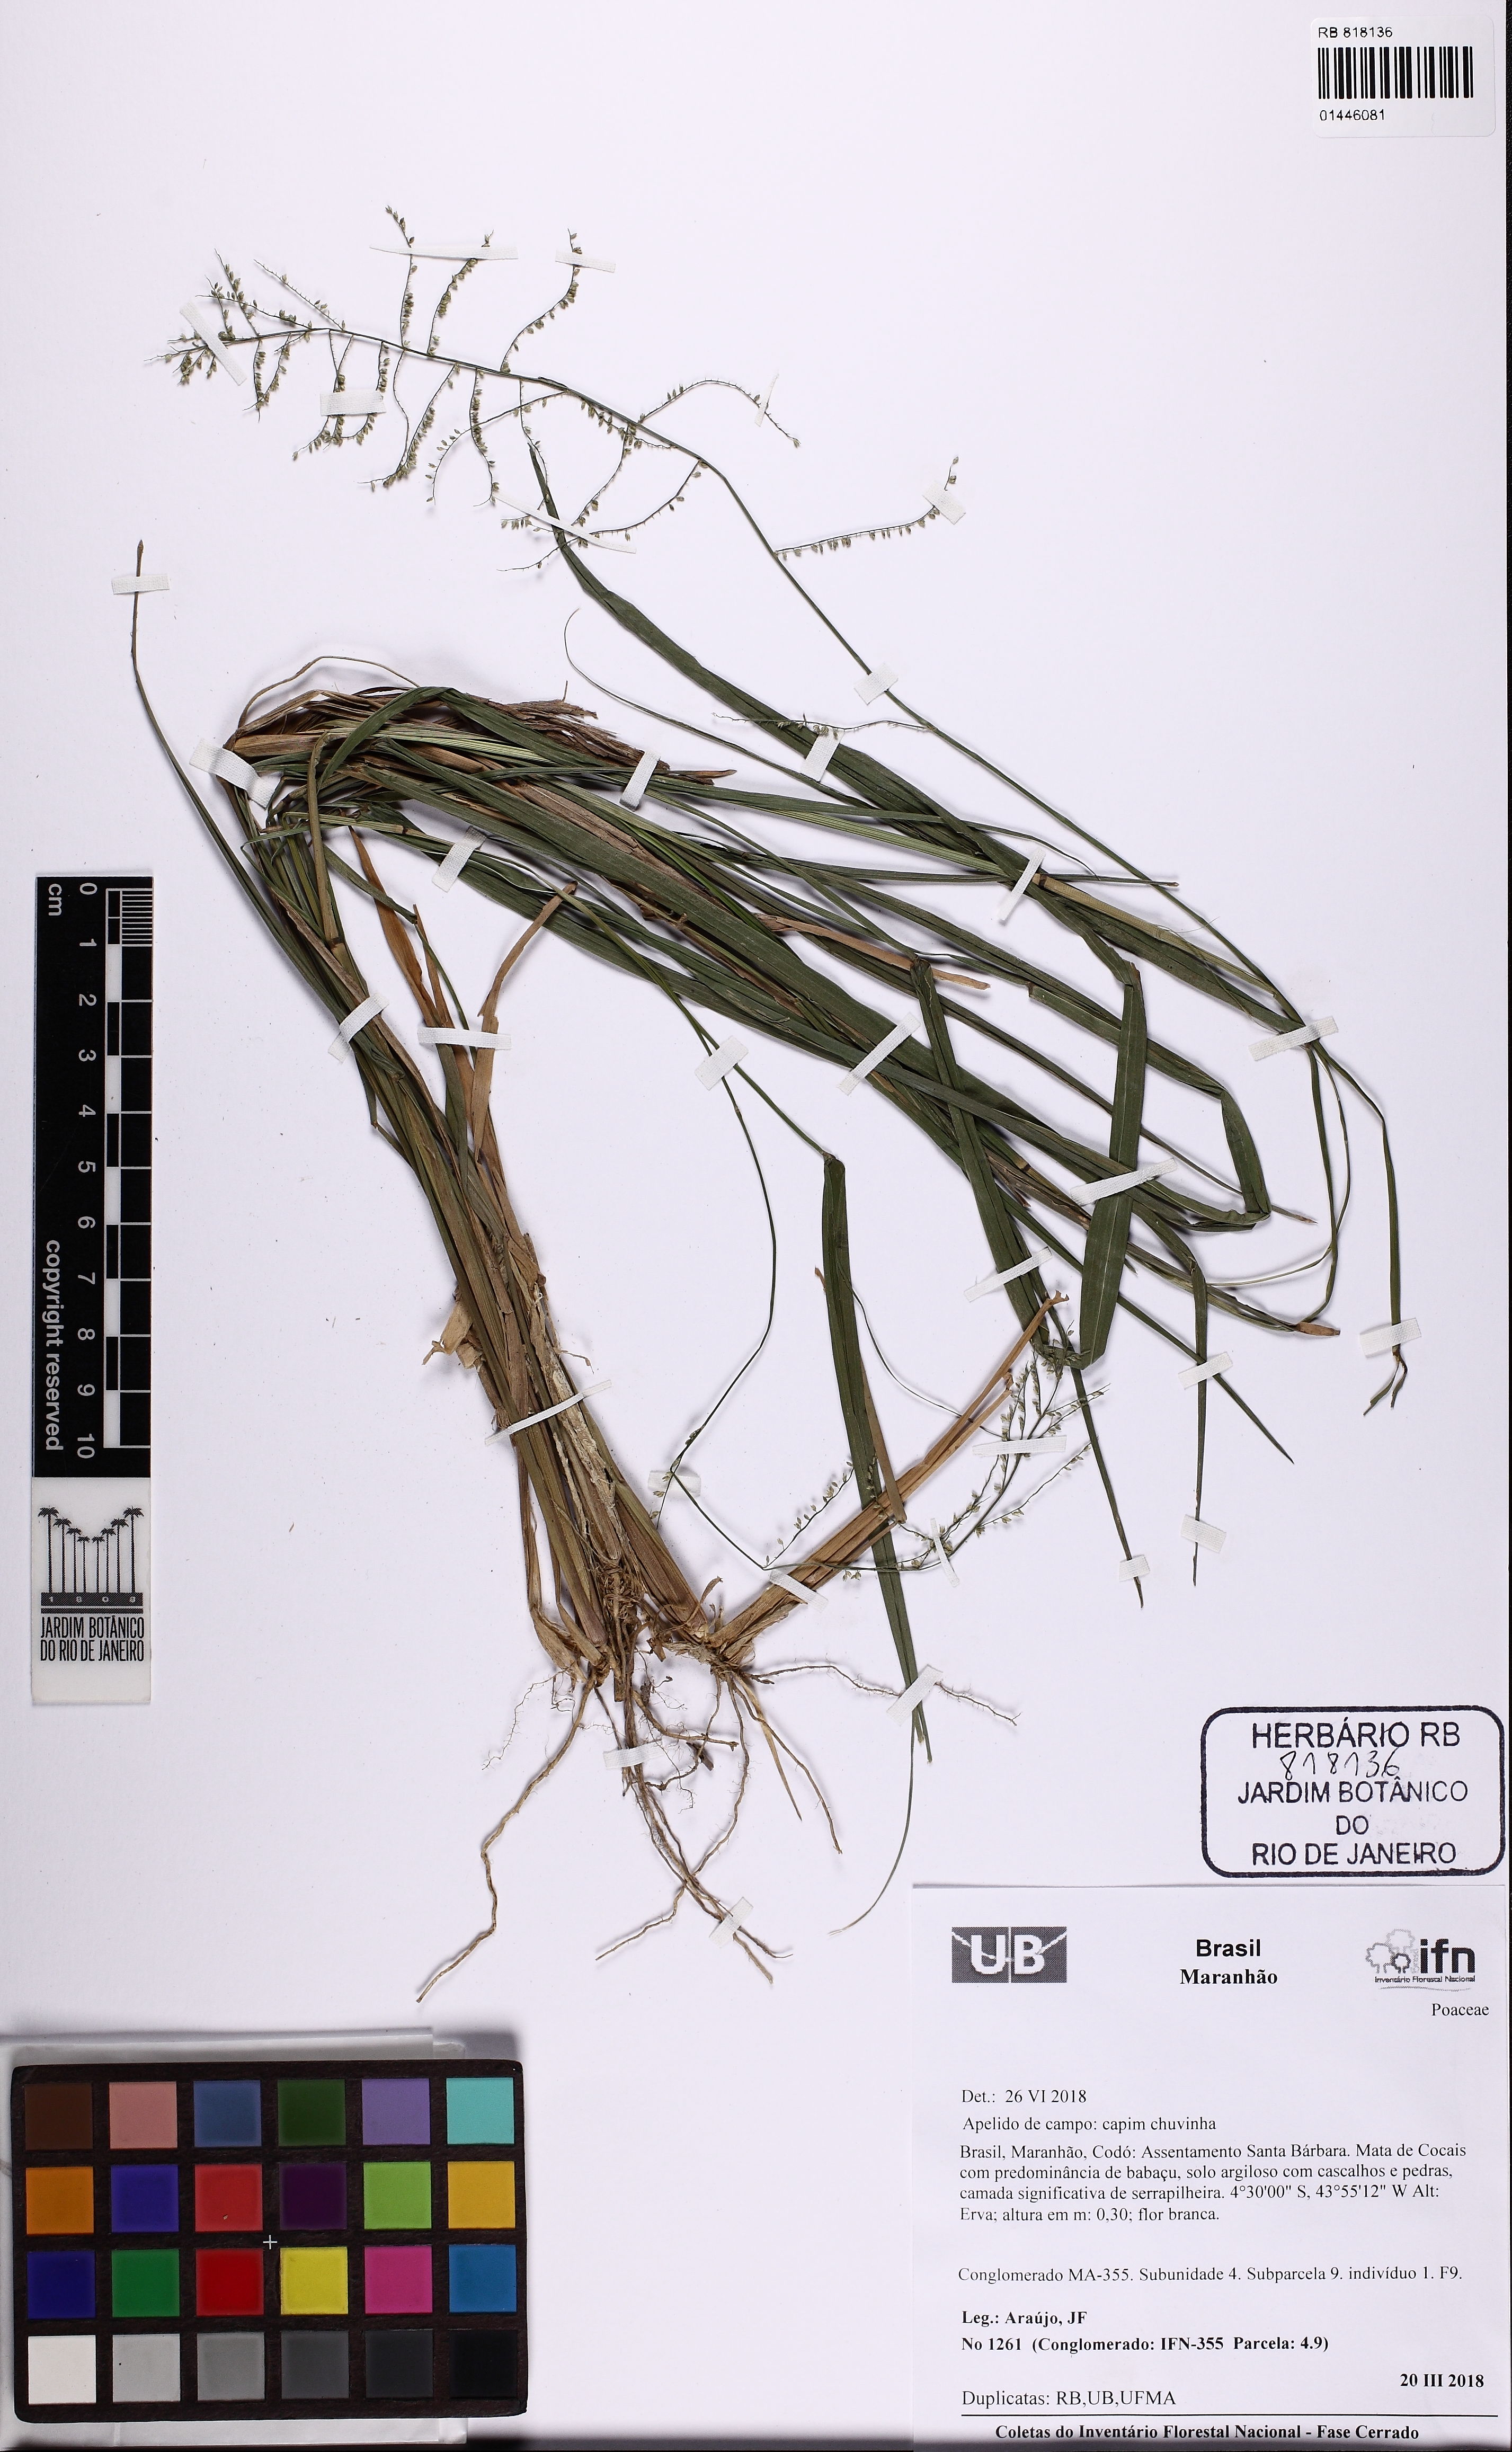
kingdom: Plantae
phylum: Tracheophyta
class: Liliopsida
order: Poales
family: Poaceae
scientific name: Poaceae
